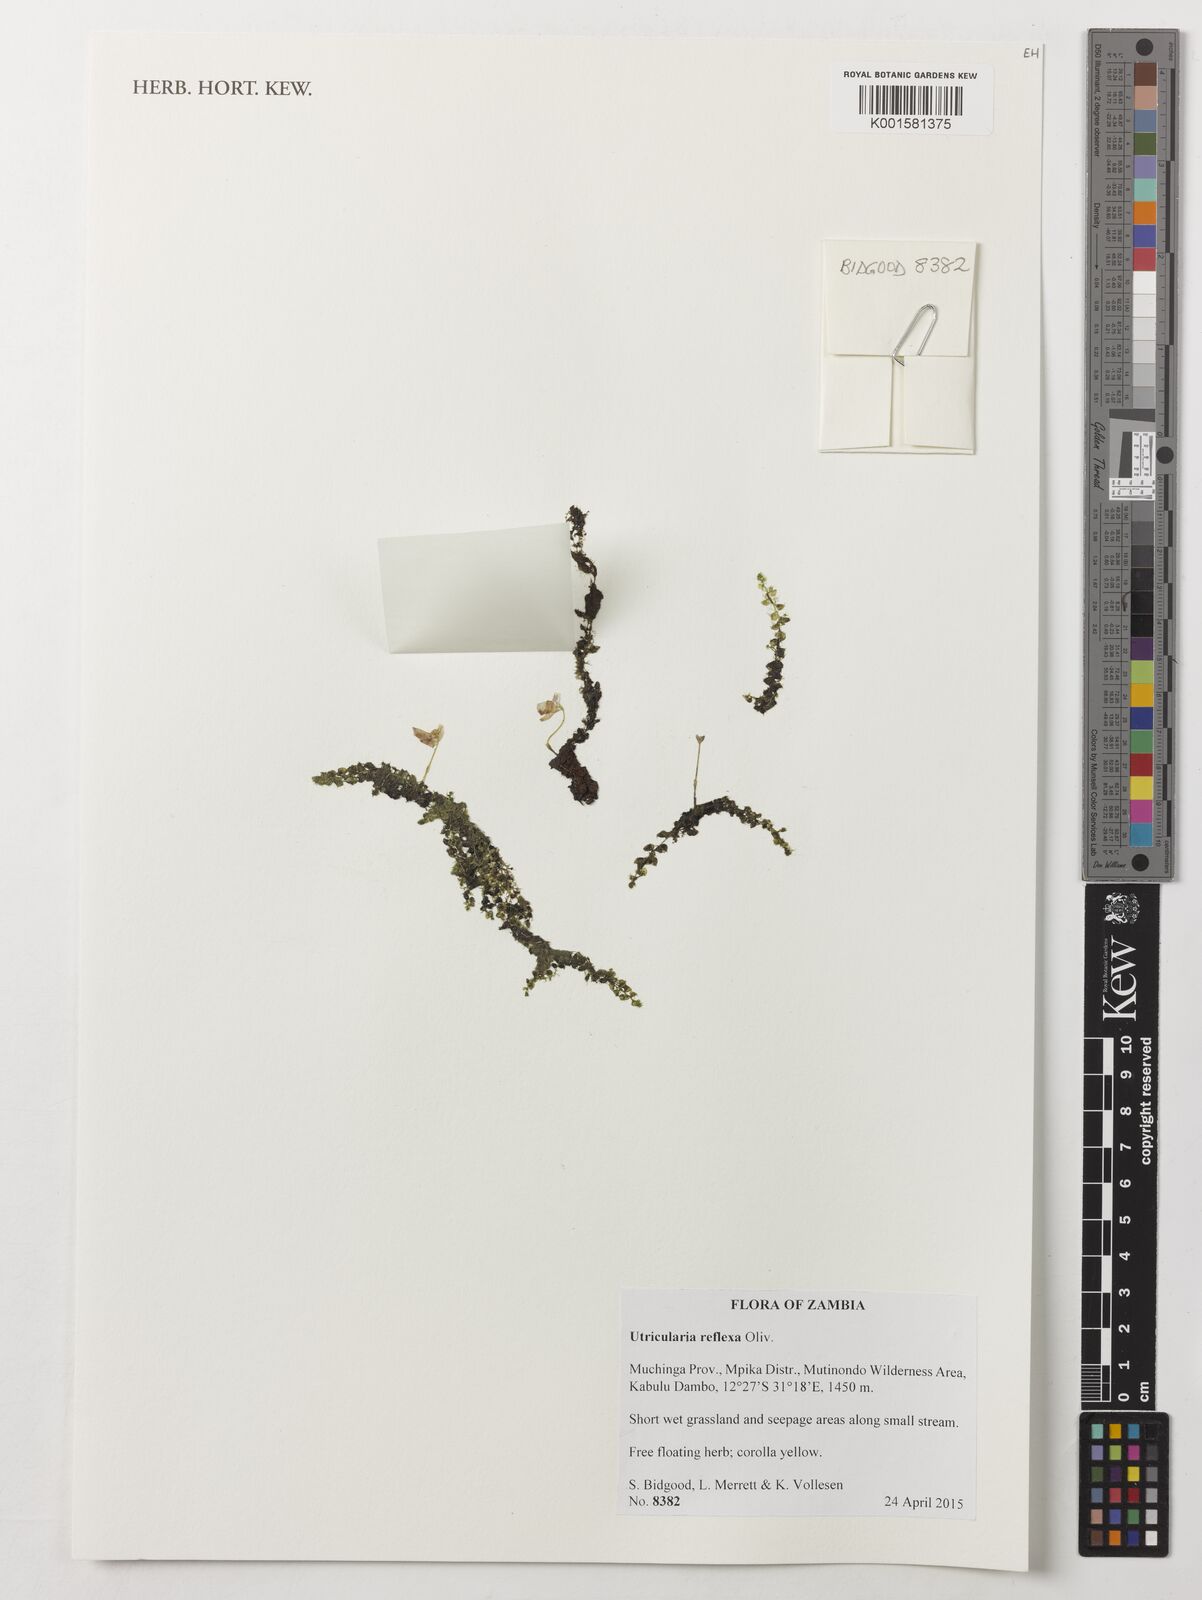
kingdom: Plantae
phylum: Tracheophyta
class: Magnoliopsida
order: Lamiales
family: Lentibulariaceae
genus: Utricularia
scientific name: Utricularia reflexa
